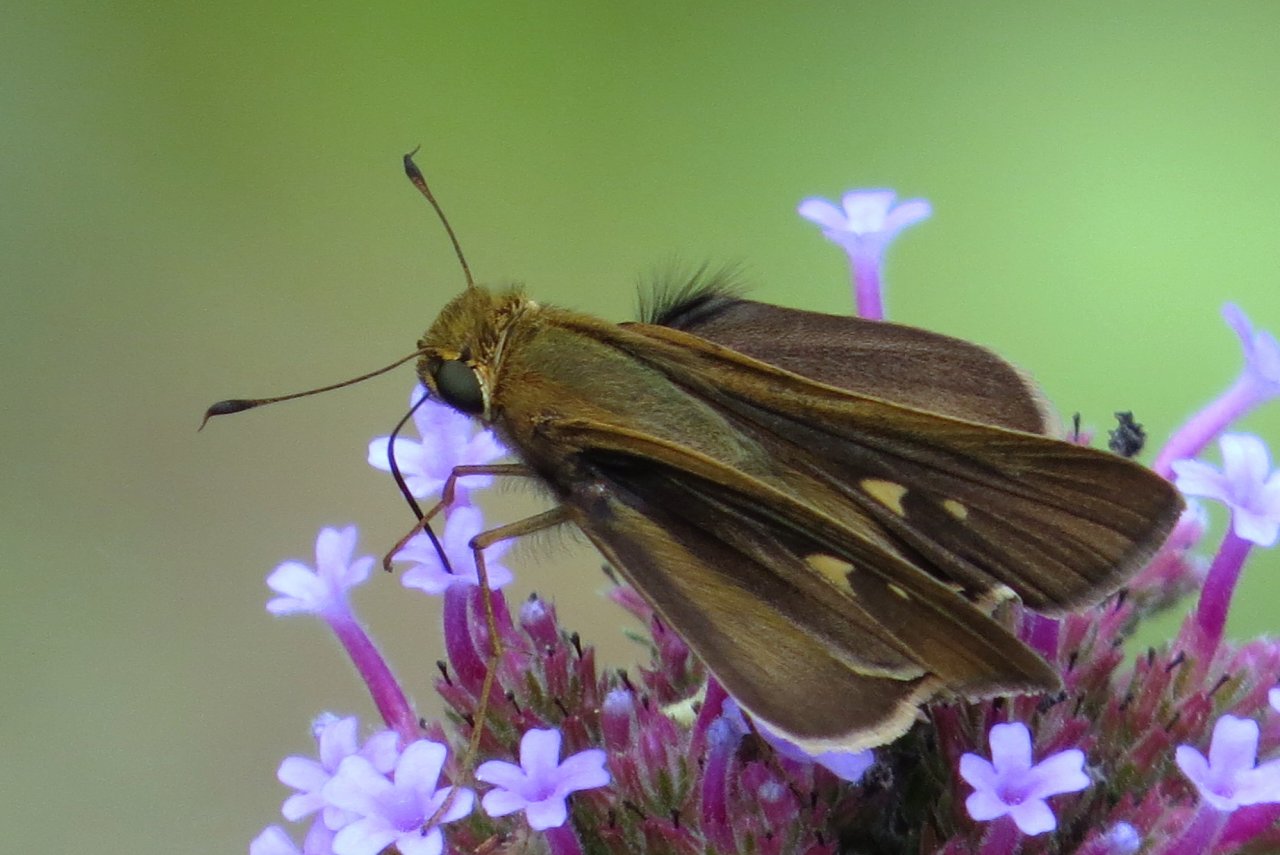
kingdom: Animalia
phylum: Arthropoda
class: Insecta
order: Lepidoptera
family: Hesperiidae
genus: Panoquina
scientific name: Panoquina ocola
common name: Ocola Skipper
